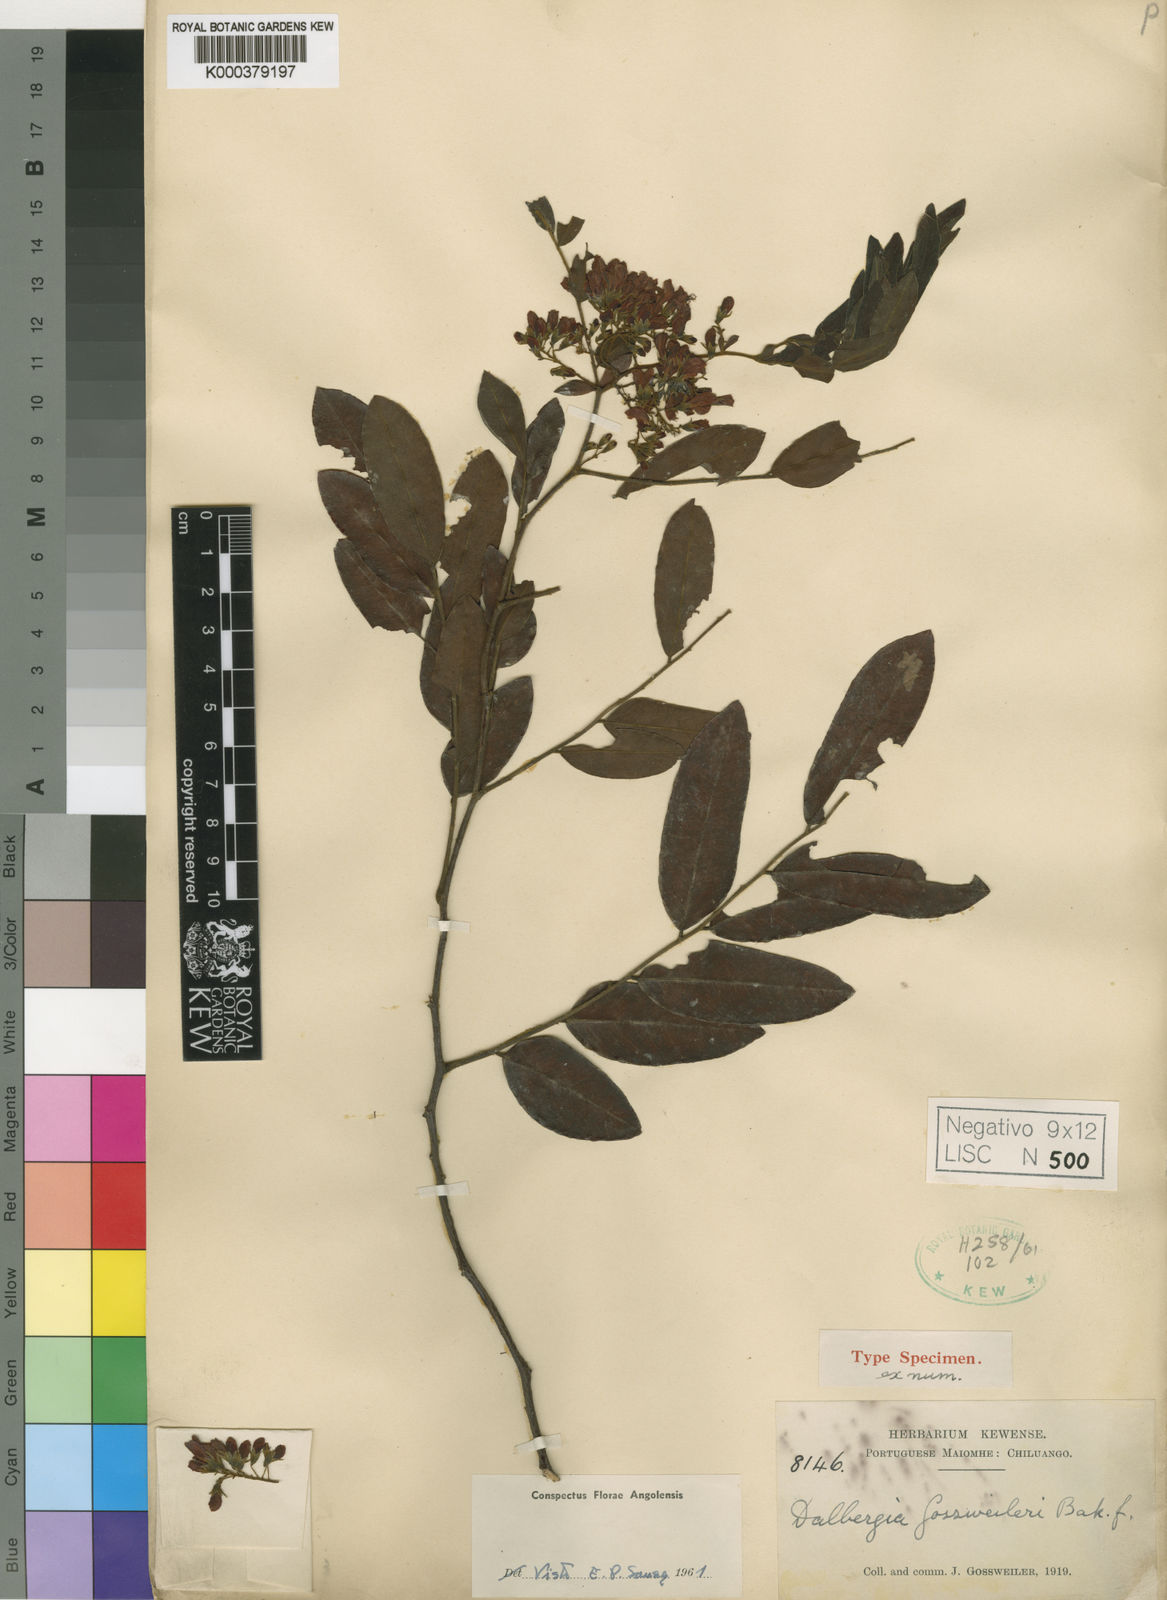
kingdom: Plantae
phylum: Tracheophyta
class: Magnoliopsida
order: Fabales
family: Fabaceae
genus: Dalbergia
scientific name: Dalbergia gossweileri
